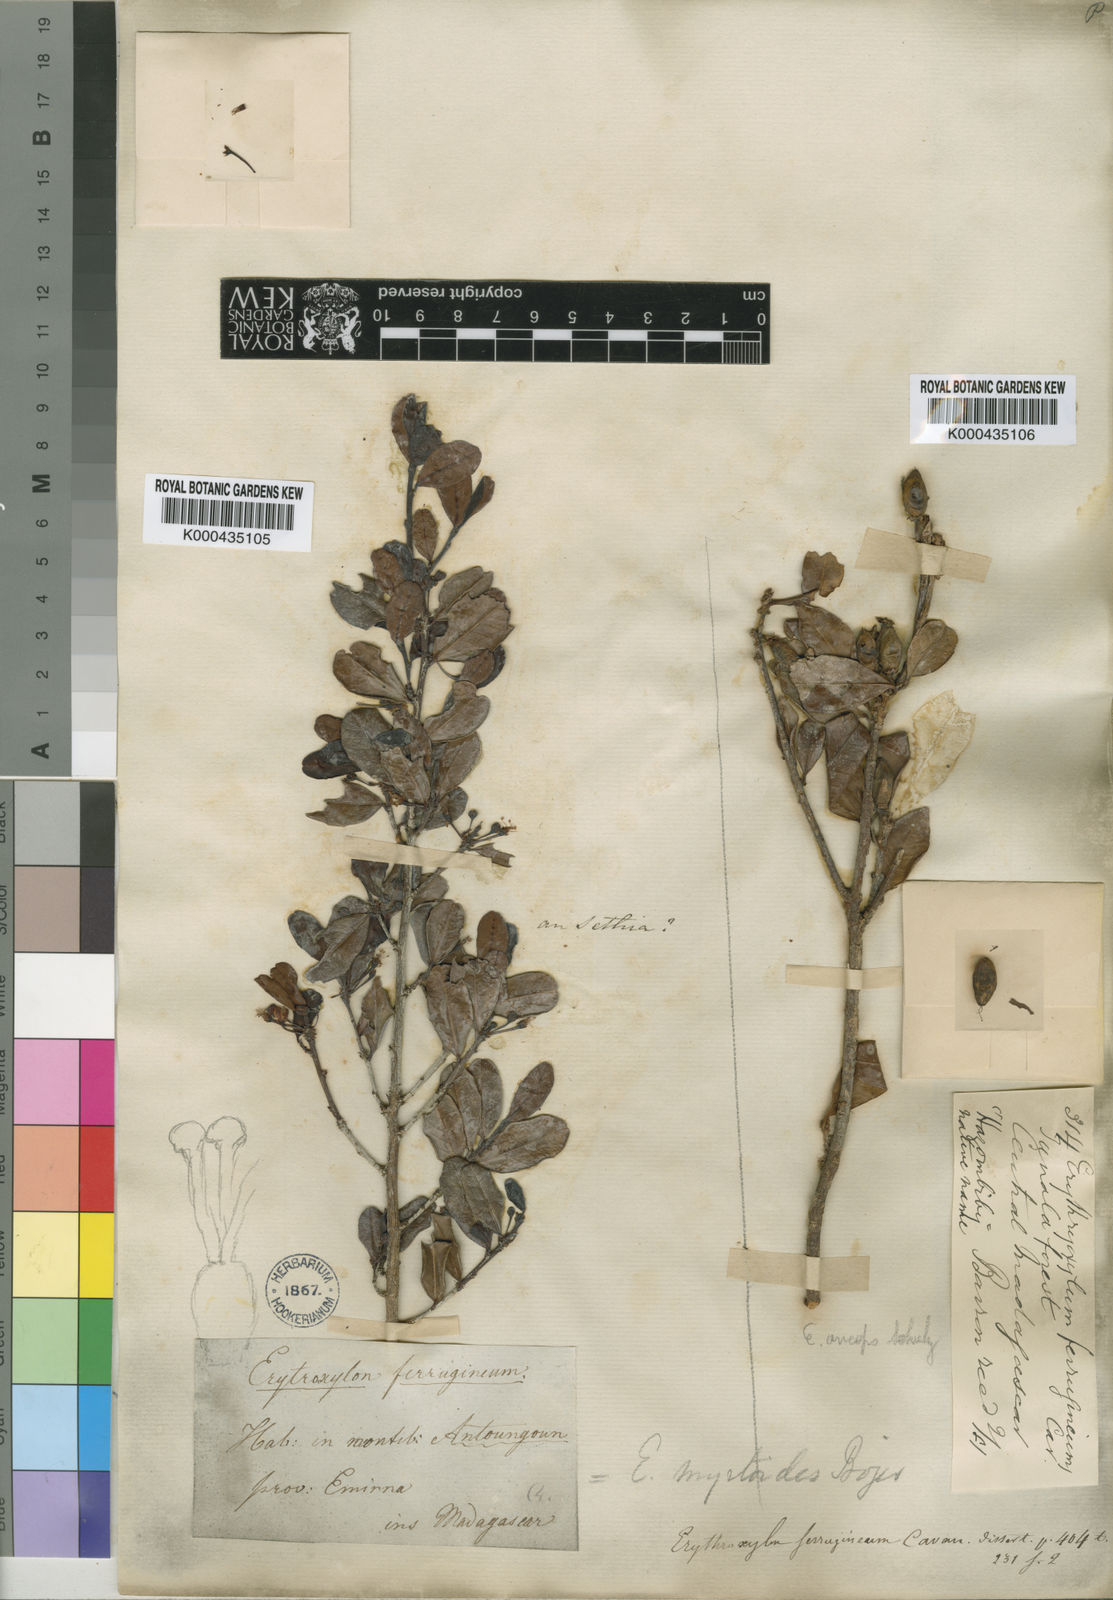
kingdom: Plantae
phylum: Tracheophyta
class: Magnoliopsida
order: Malpighiales
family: Erythroxylaceae
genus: Erythroxylum
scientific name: Erythroxylum ferrugineum
